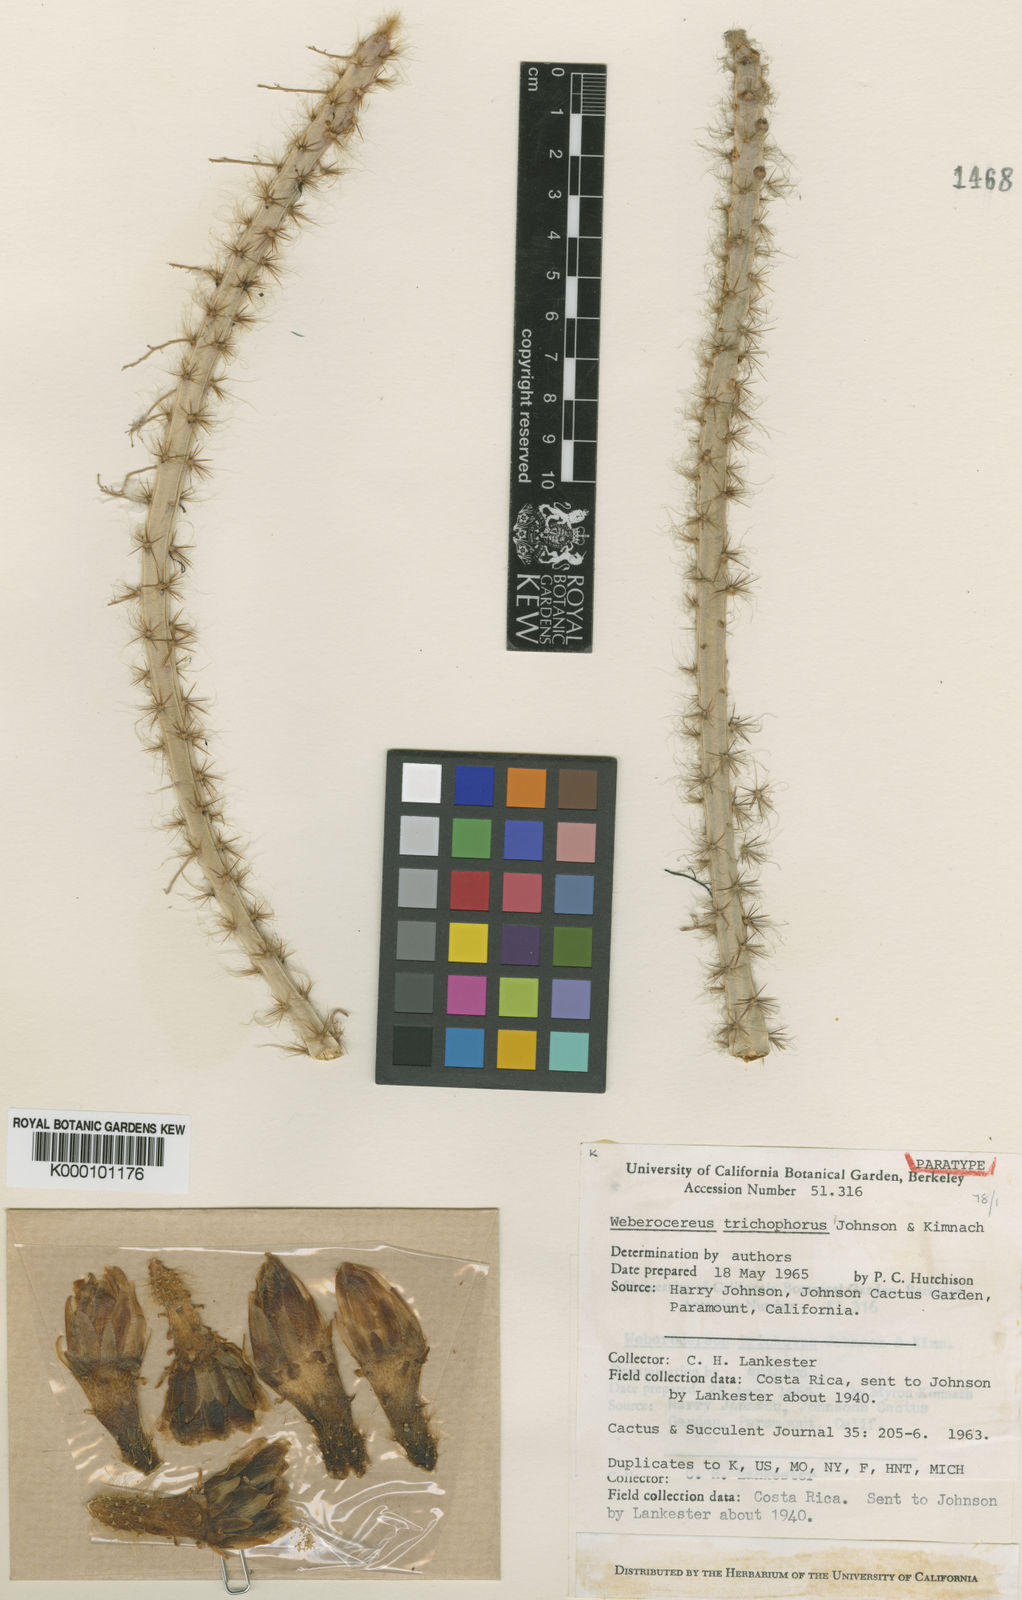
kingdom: Plantae
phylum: Tracheophyta
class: Magnoliopsida
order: Caryophyllales
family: Cactaceae
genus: Weberocereus
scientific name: Weberocereus trichophorus
